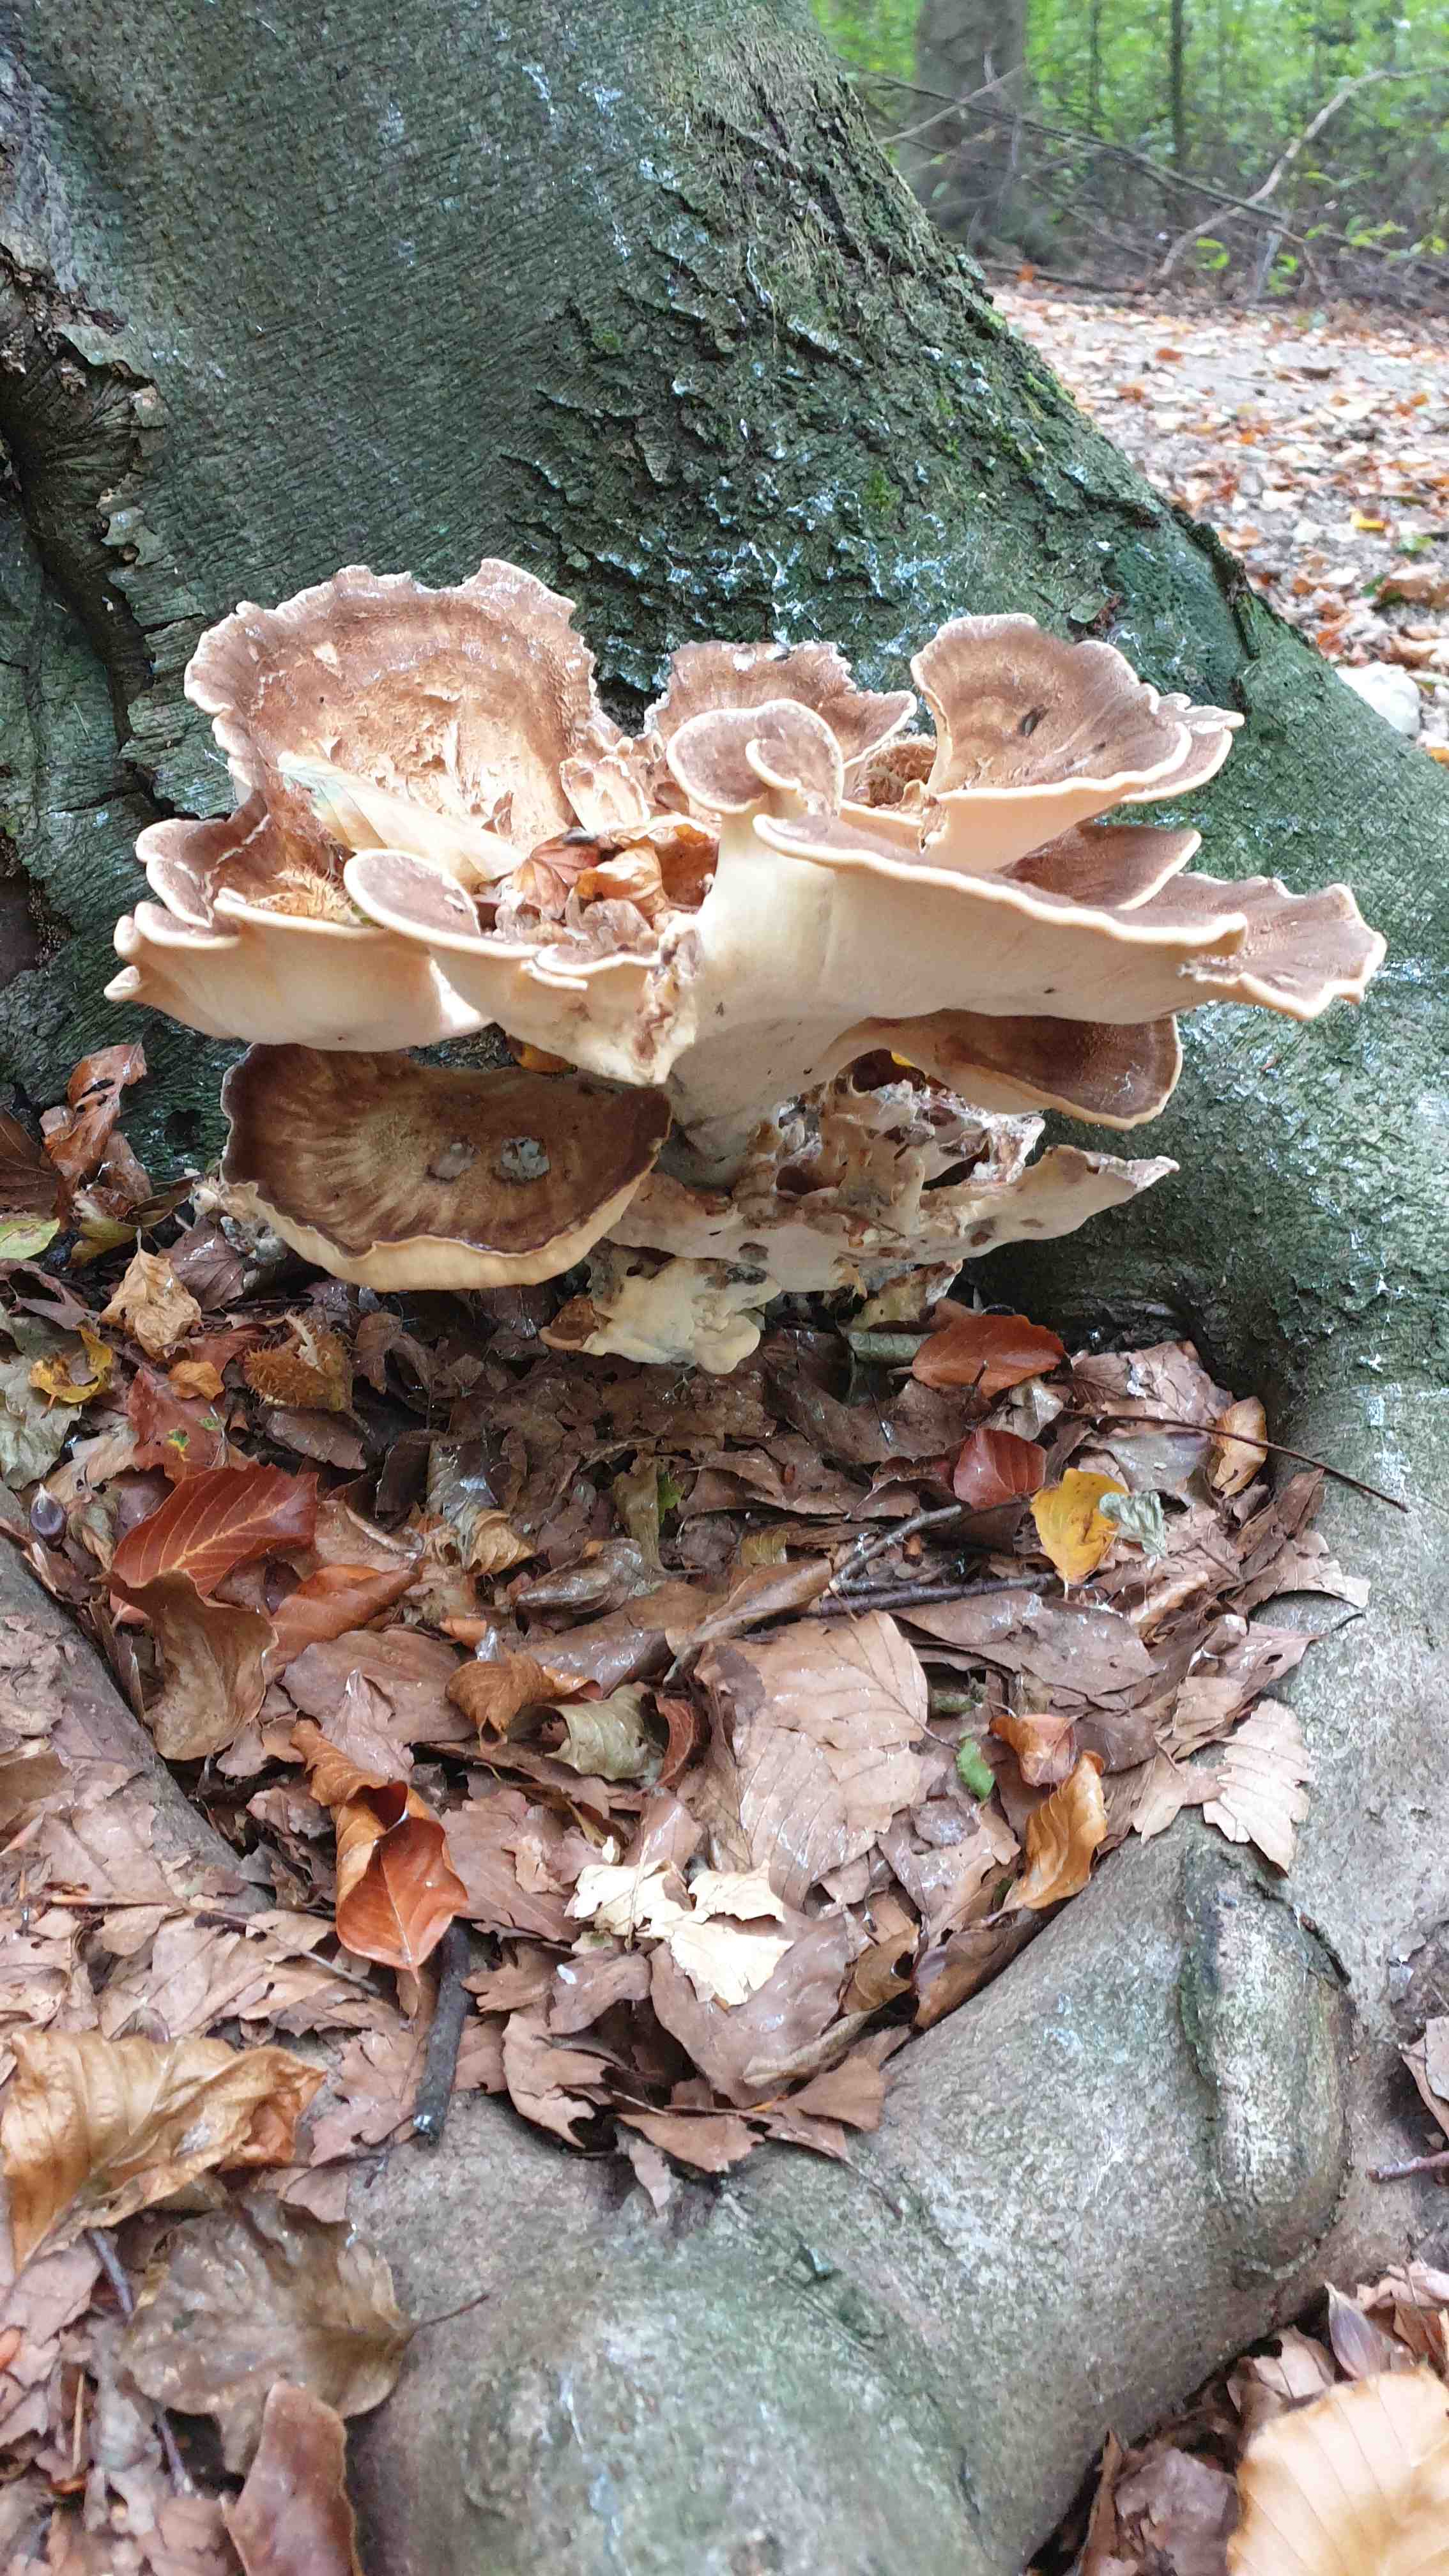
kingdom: Fungi
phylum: Basidiomycota
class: Agaricomycetes
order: Polyporales
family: Meripilaceae
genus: Meripilus
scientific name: Meripilus giganteus
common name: kæmpeporesvamp
